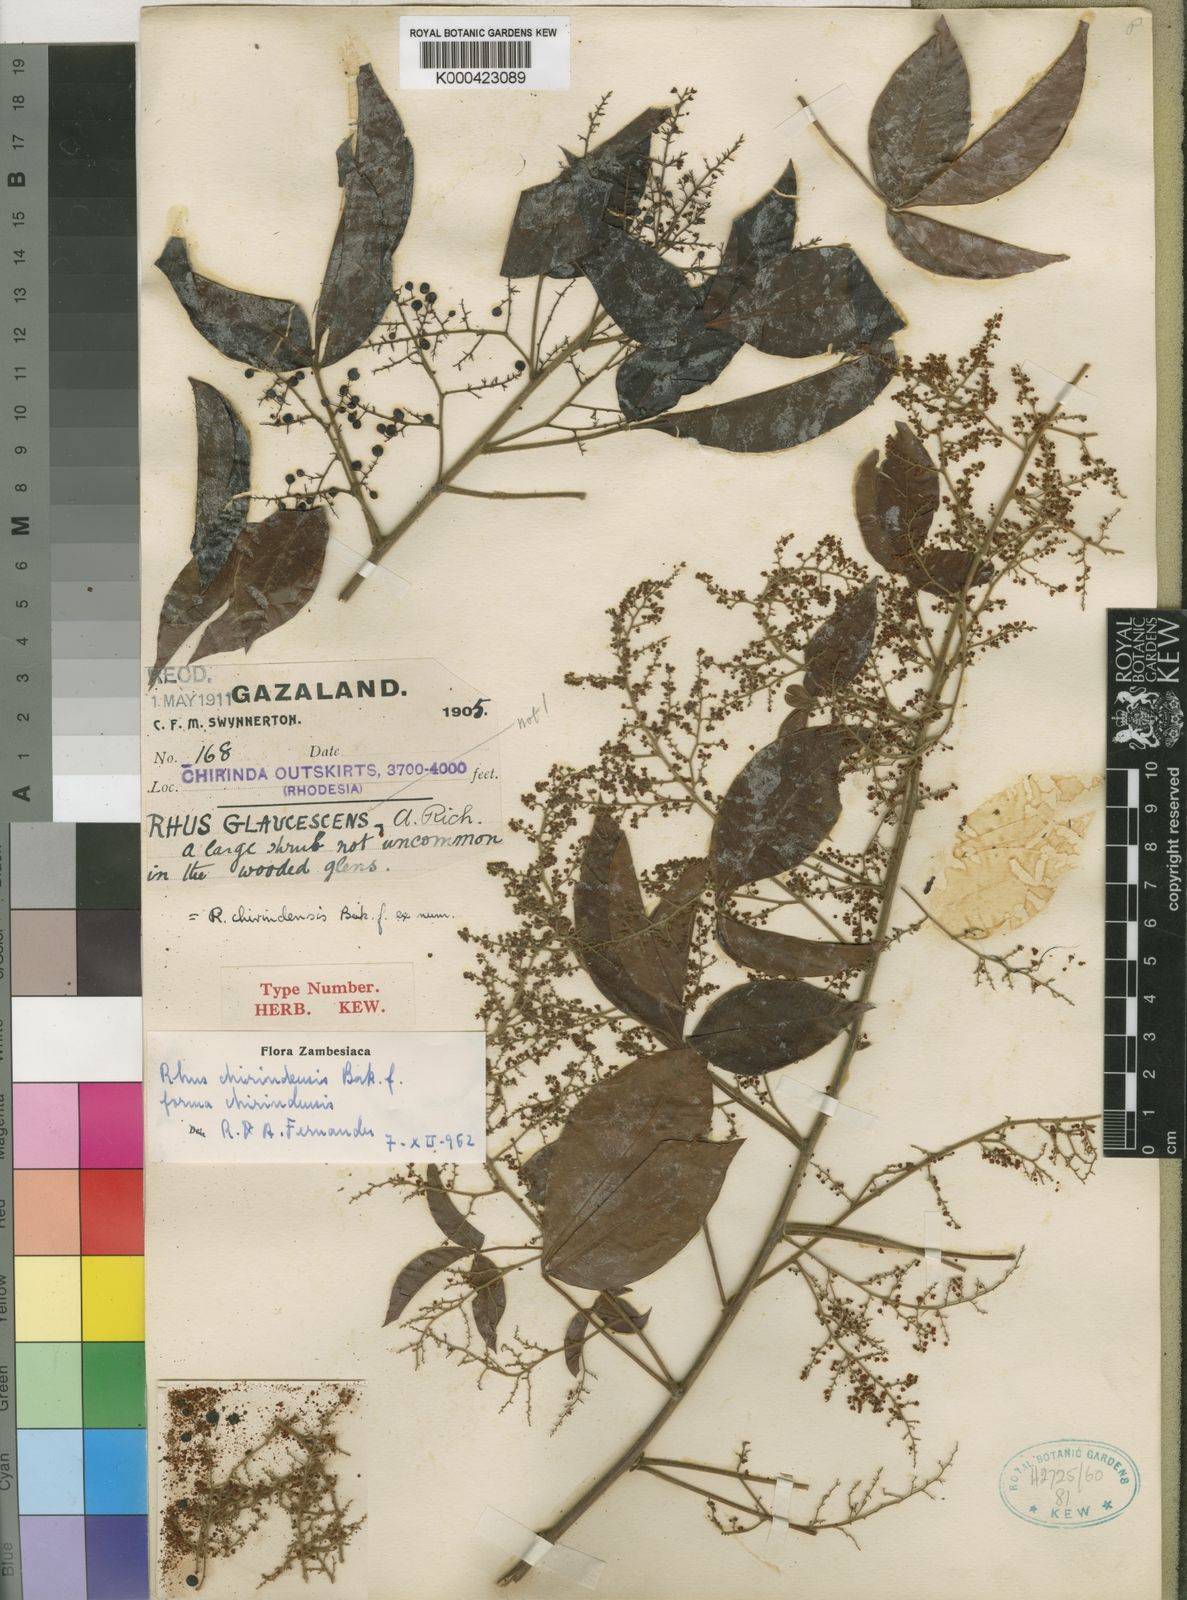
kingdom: Plantae
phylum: Tracheophyta
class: Magnoliopsida
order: Sapindales
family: Anacardiaceae
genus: Searsia
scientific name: Searsia chirindensis
